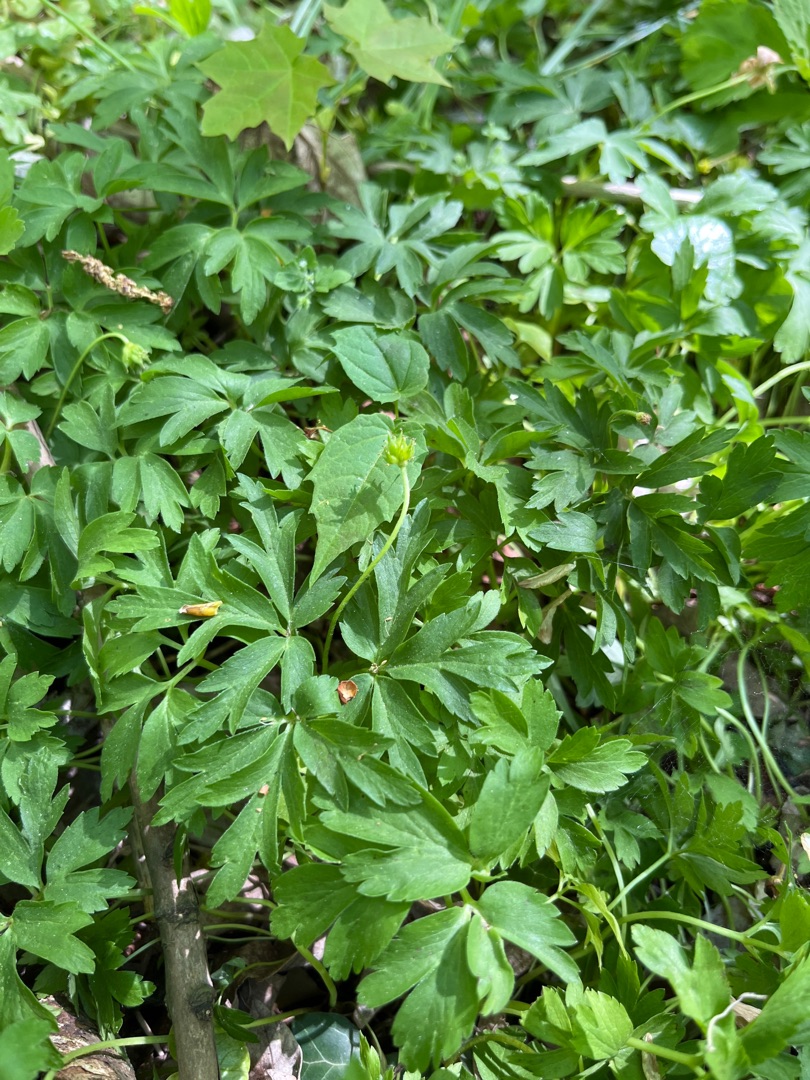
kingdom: Plantae
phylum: Tracheophyta
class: Magnoliopsida
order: Ranunculales
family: Ranunculaceae
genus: Anemone
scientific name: Anemone nemorosa
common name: Hvid anemone
